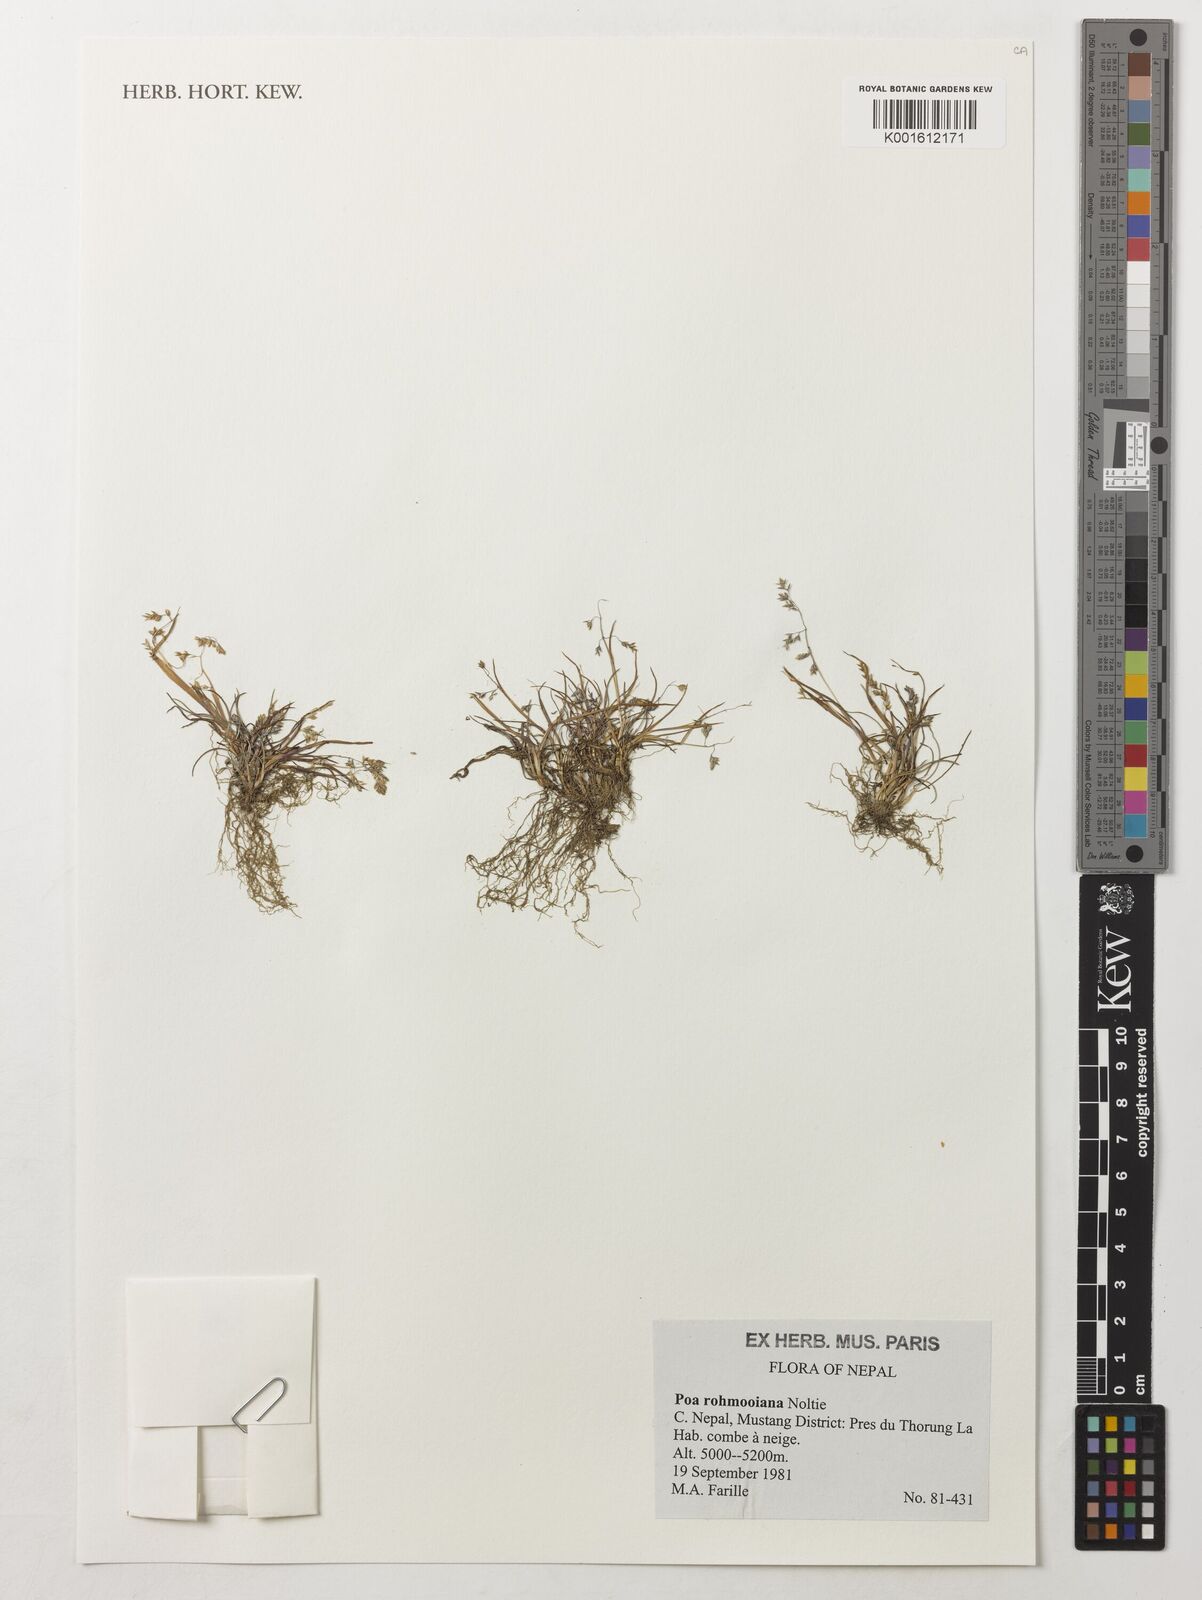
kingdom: Plantae
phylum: Tracheophyta
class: Liliopsida
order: Poales
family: Poaceae
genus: Poa
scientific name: Poa szechuensis
